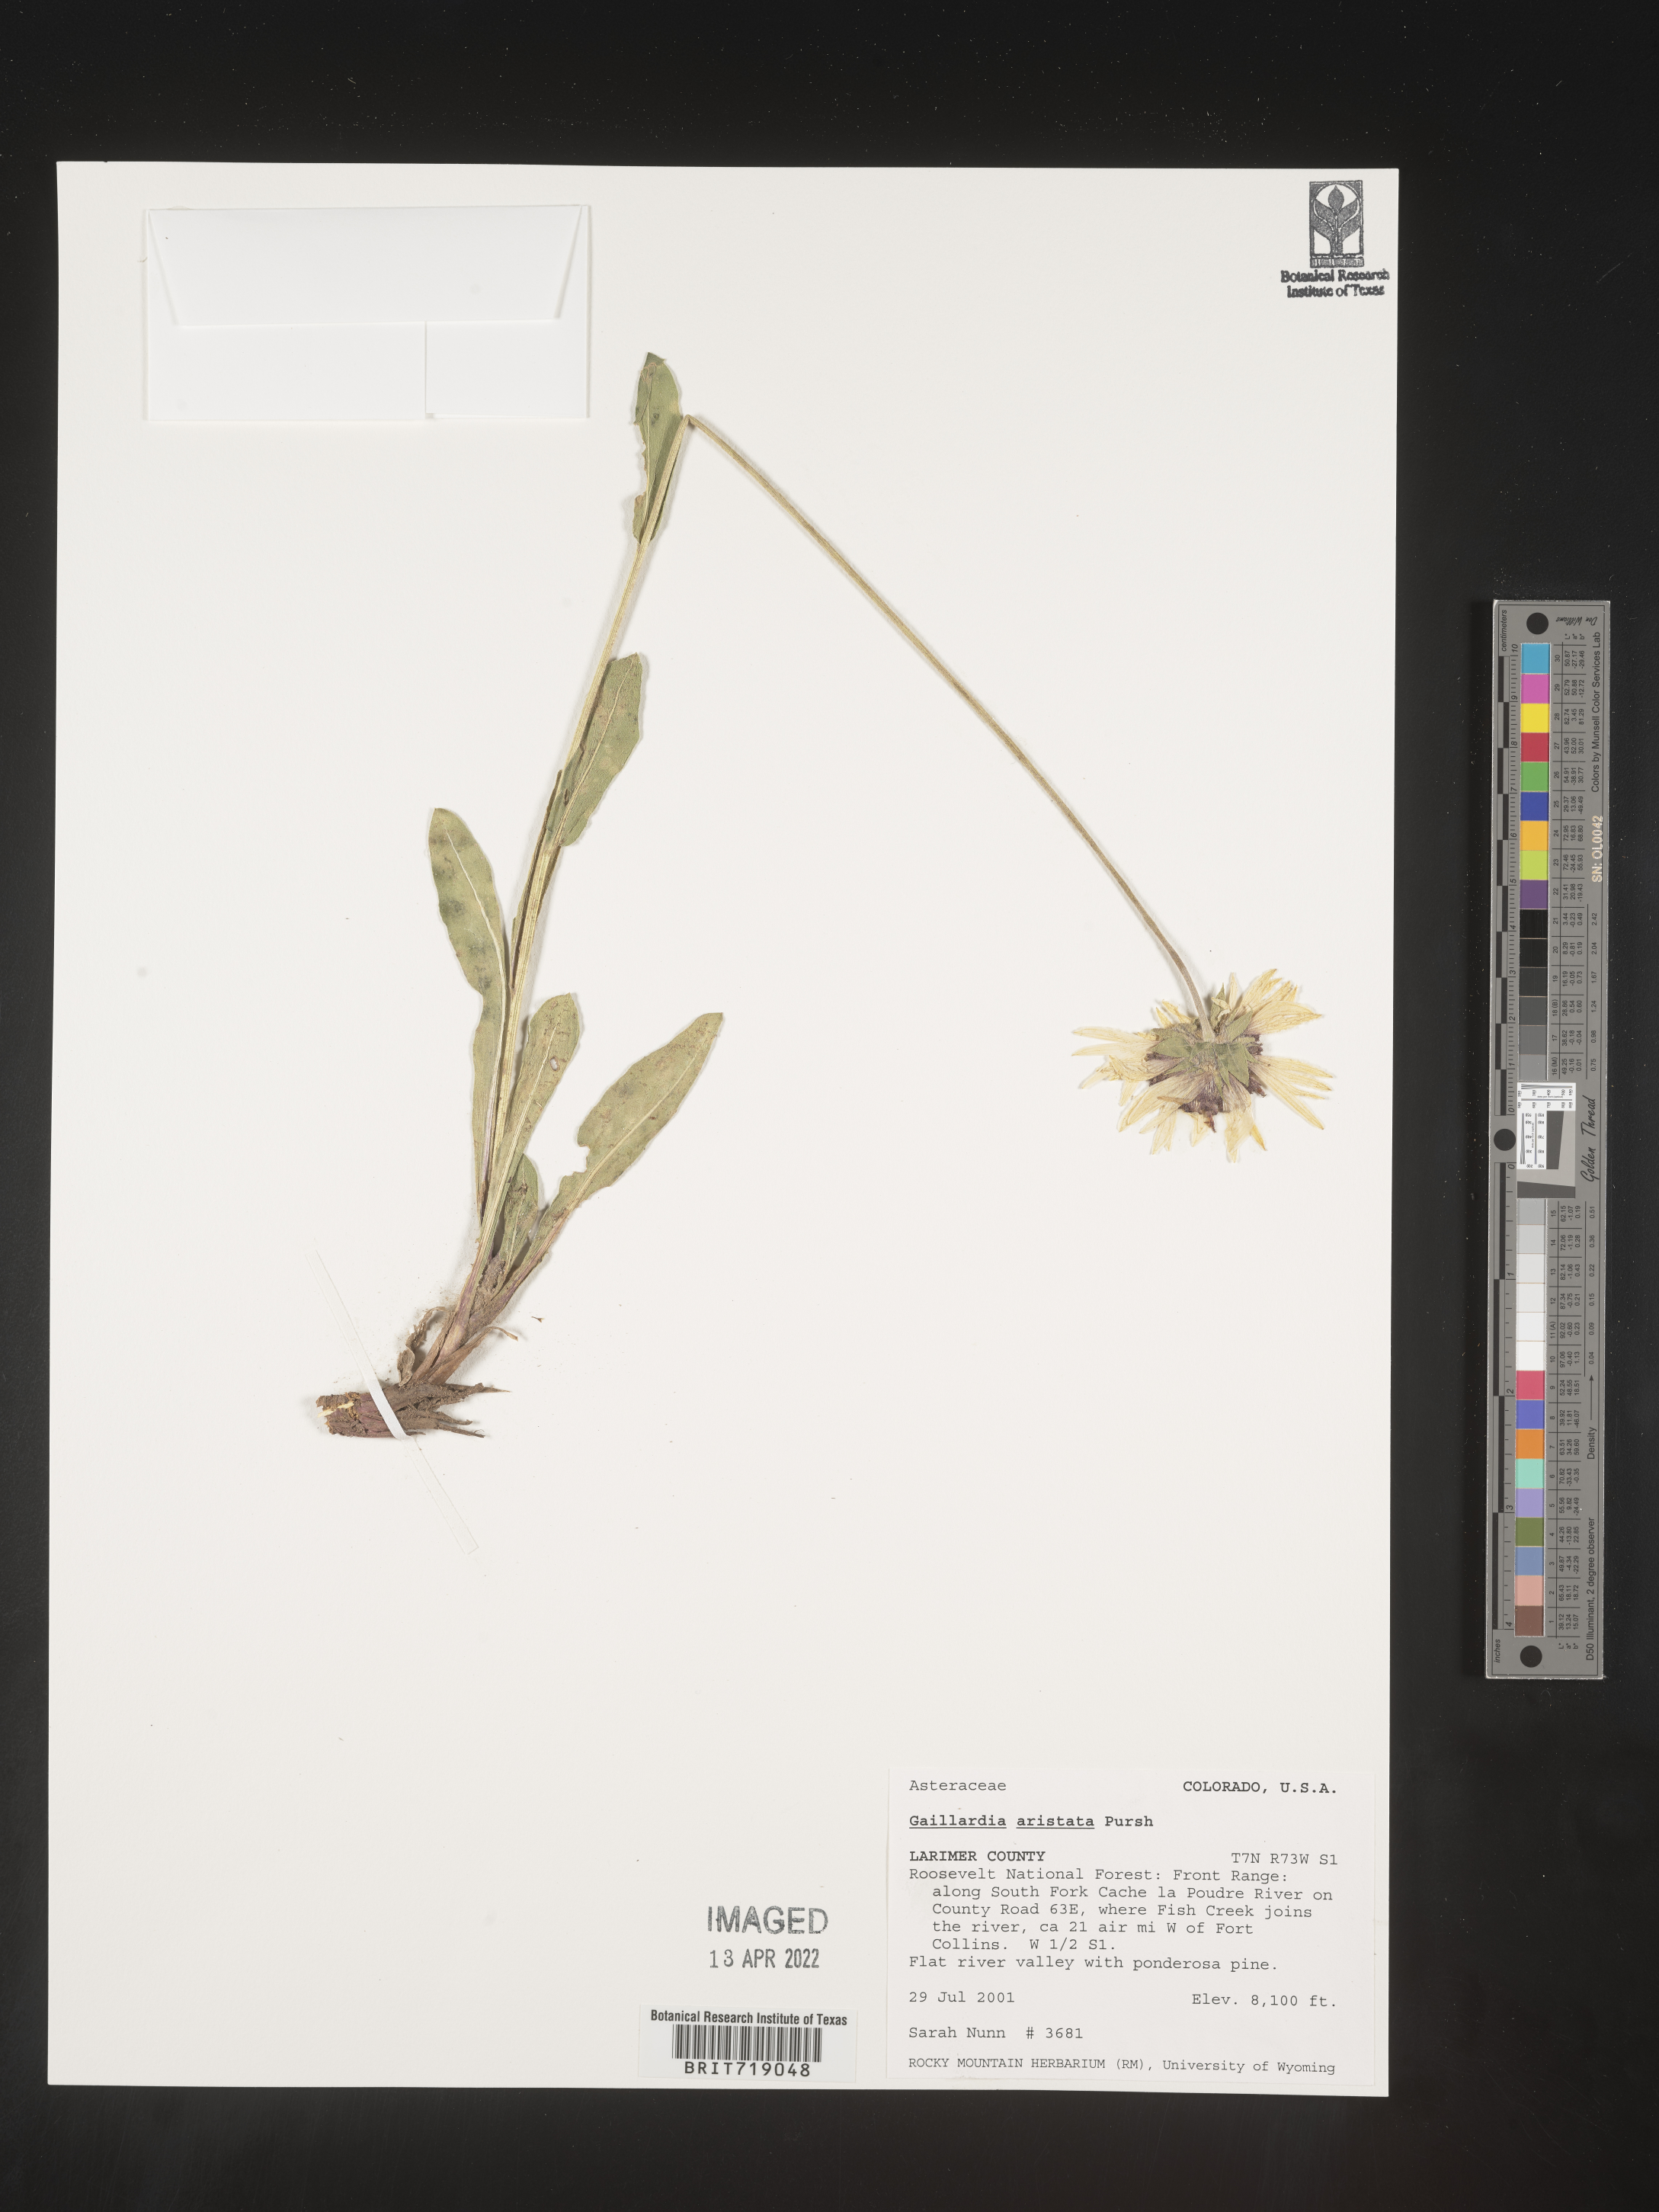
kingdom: Plantae
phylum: Tracheophyta
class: Magnoliopsida
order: Asterales
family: Asteraceae
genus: Gaillardia
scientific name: Gaillardia aristata
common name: Blanket-flower
